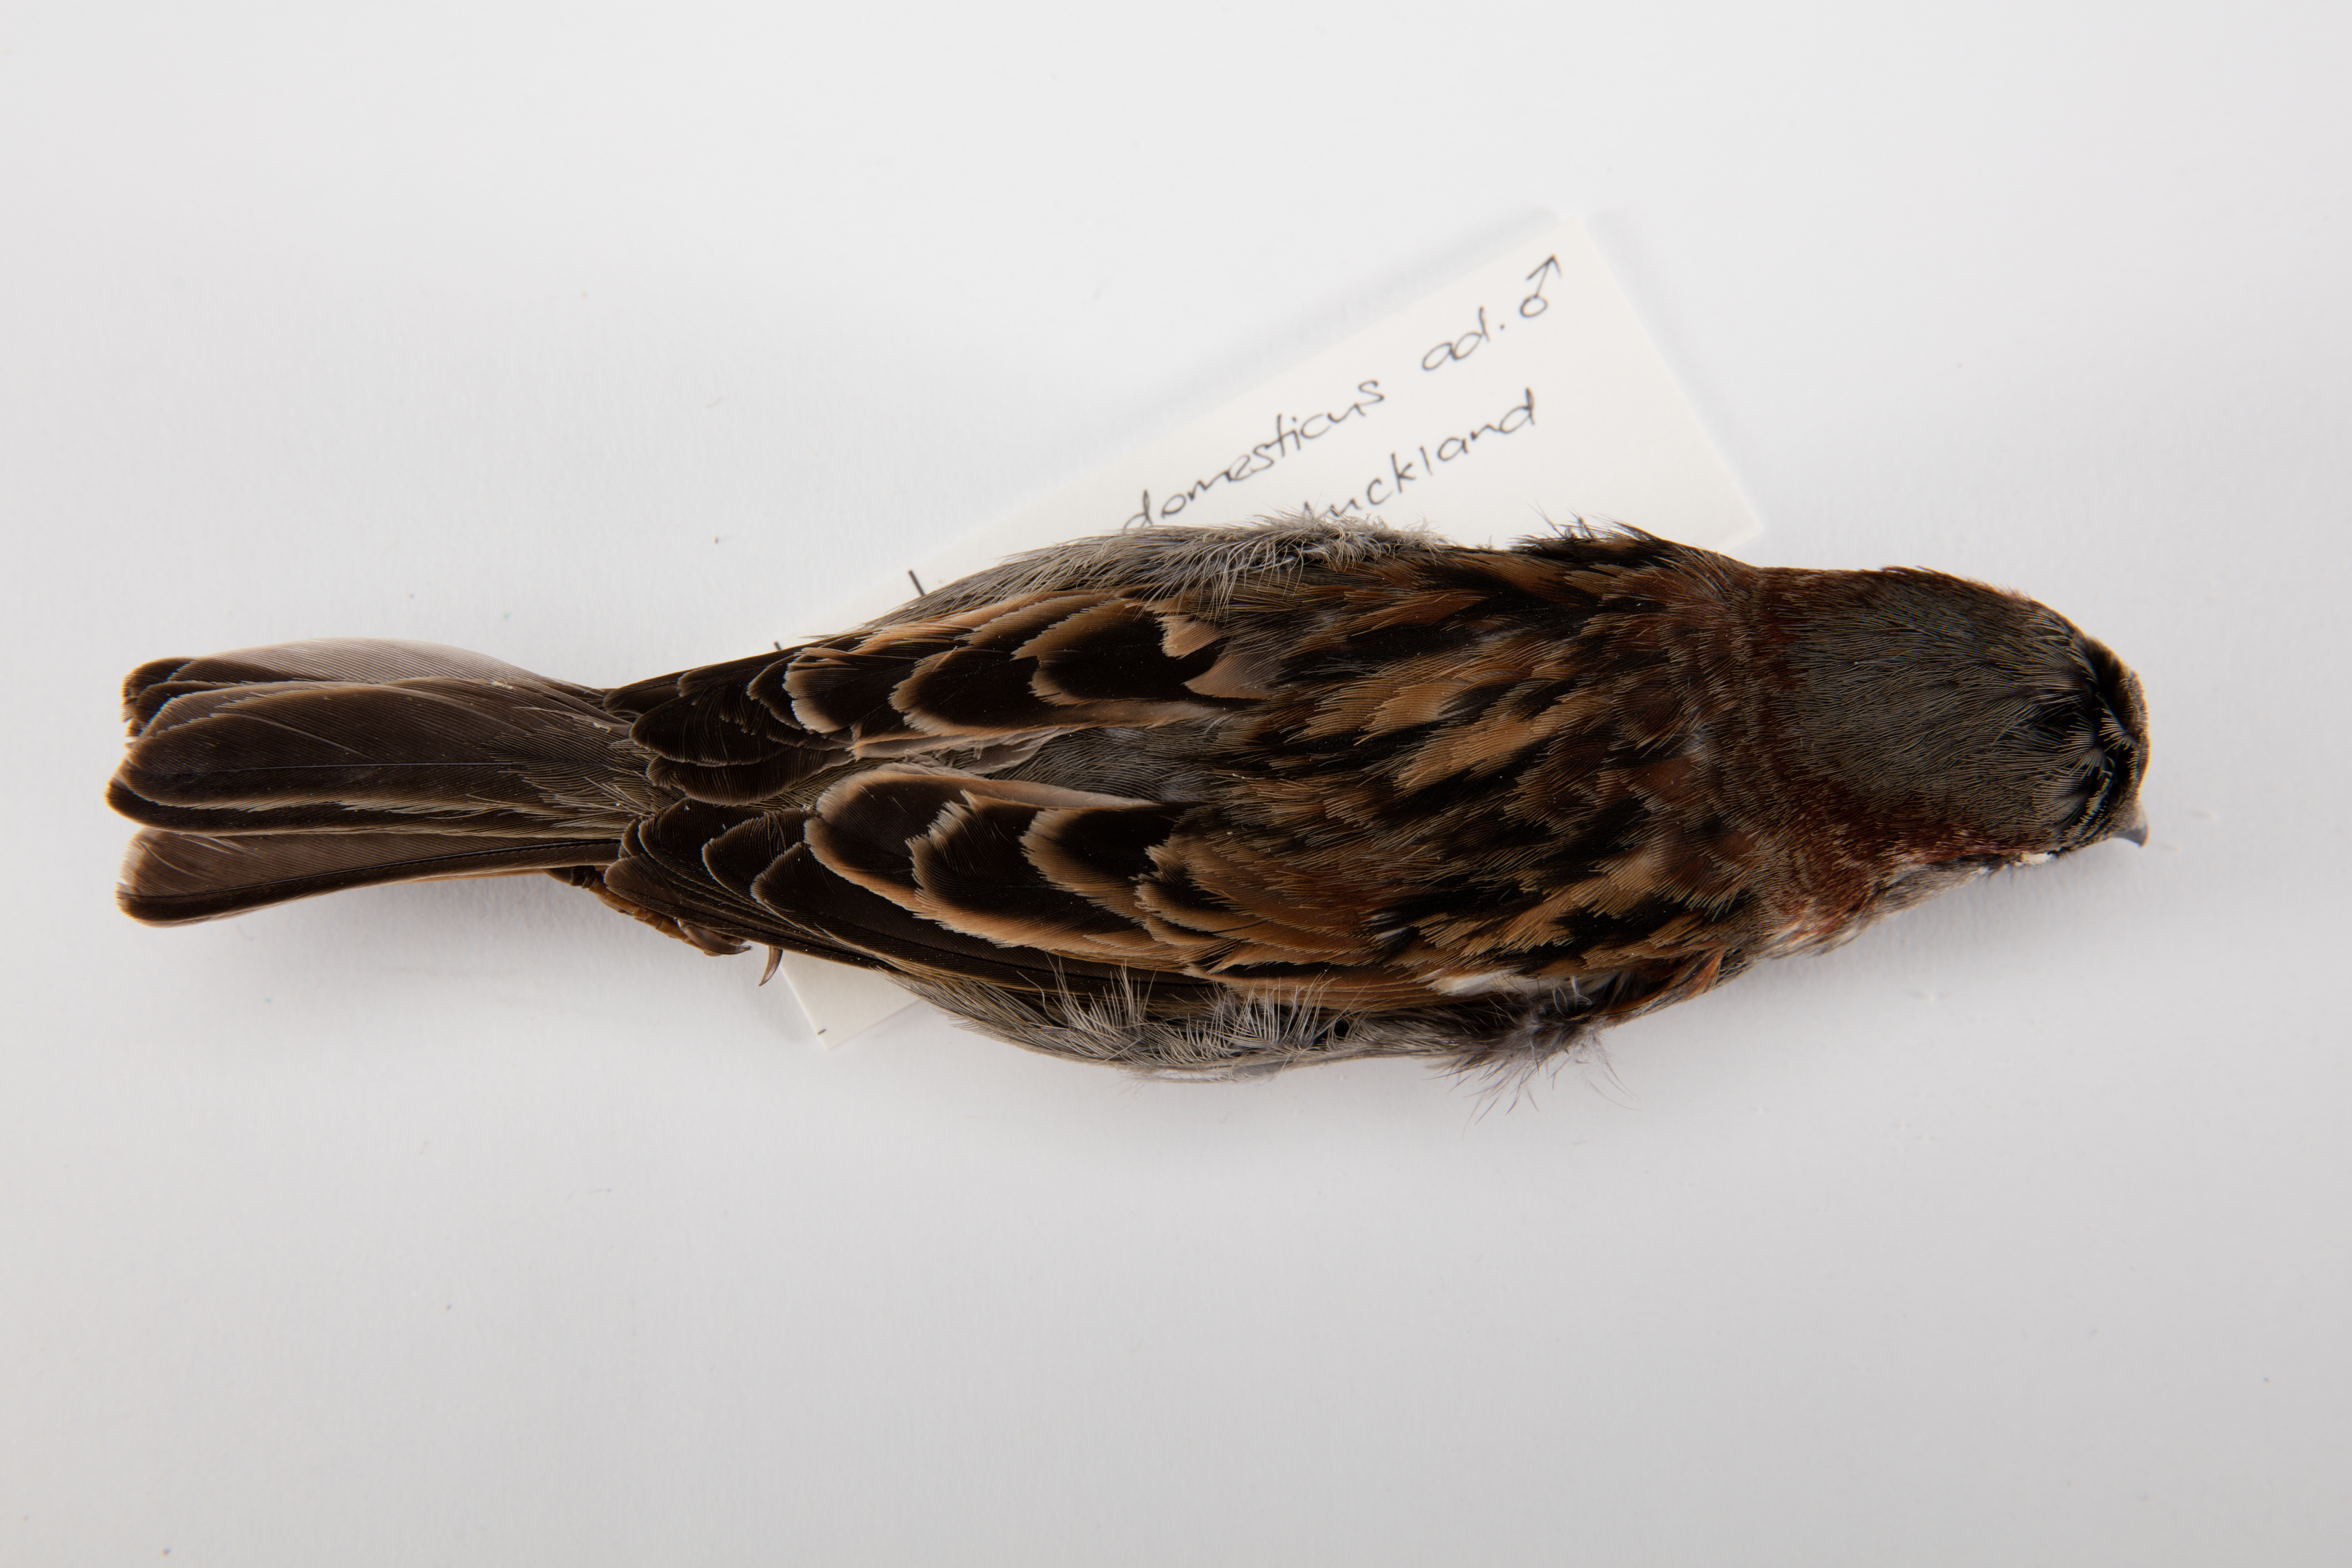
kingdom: Animalia
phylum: Chordata
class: Aves
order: Passeriformes
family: Passeridae
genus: Passer
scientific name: Passer domesticus
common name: House sparrow
